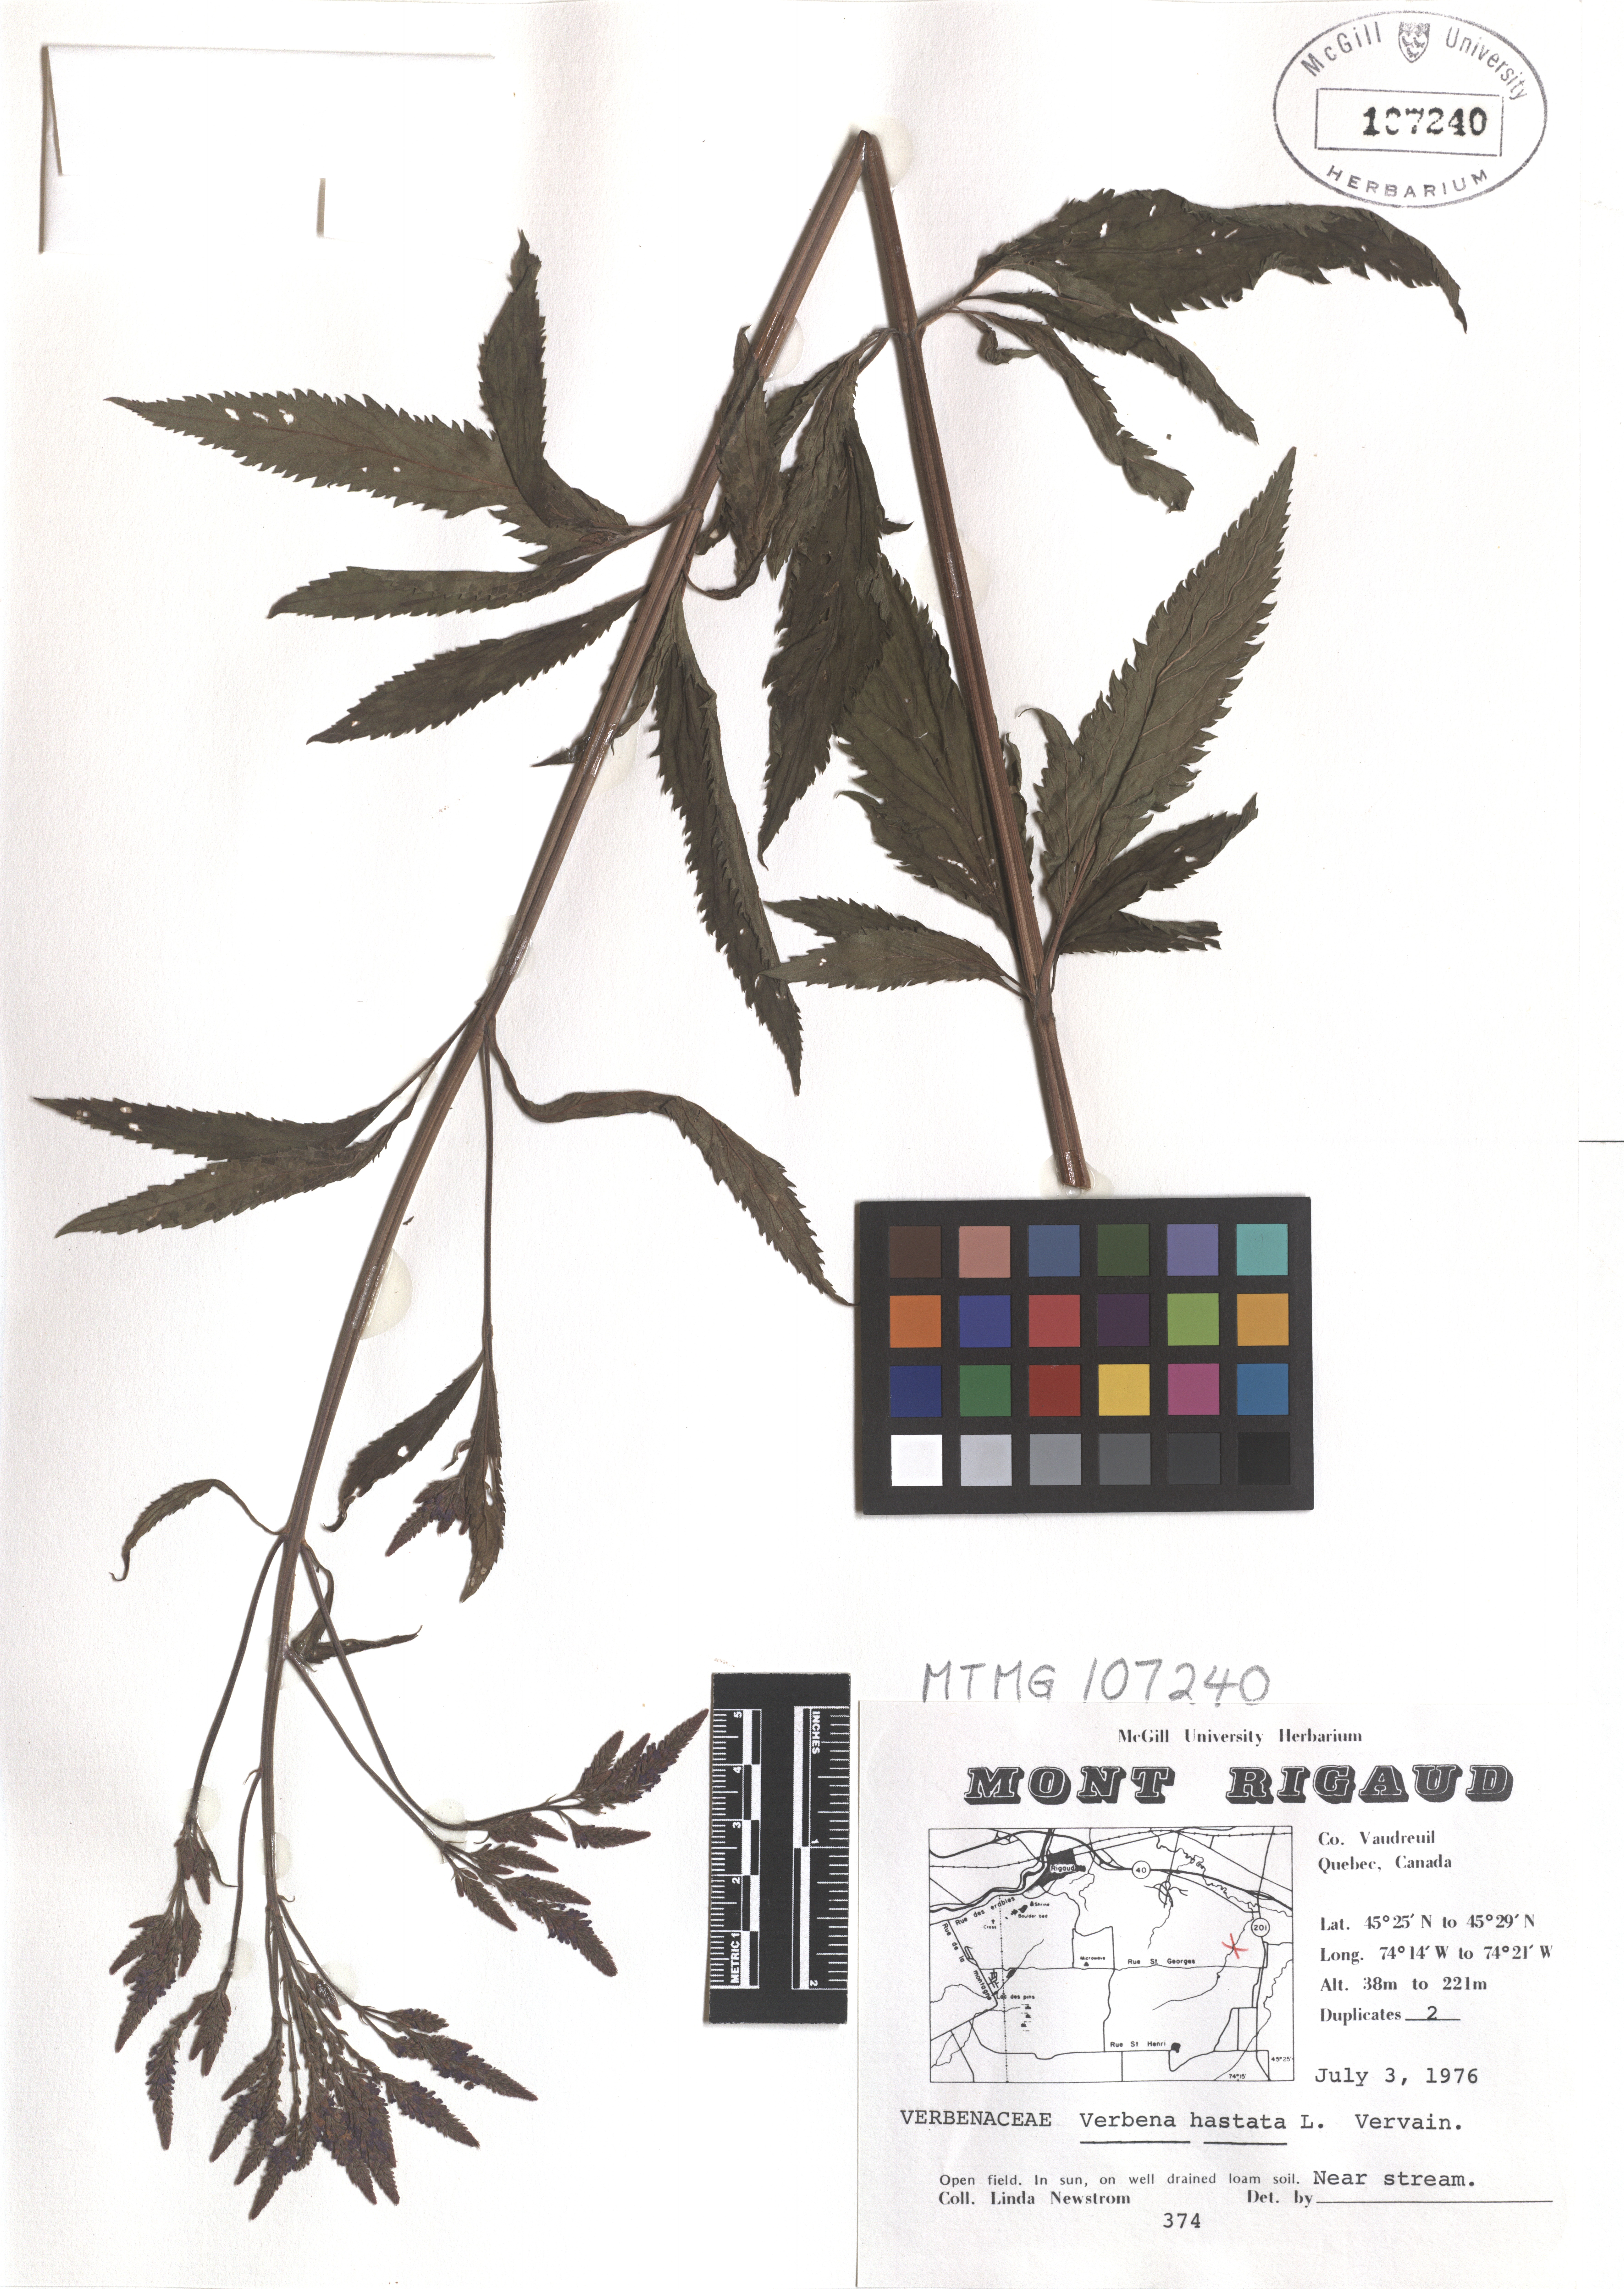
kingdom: Plantae
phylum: Tracheophyta
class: Magnoliopsida
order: Lamiales
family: Verbenaceae
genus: Verbena
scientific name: Verbena hastata
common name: American blue vervain
